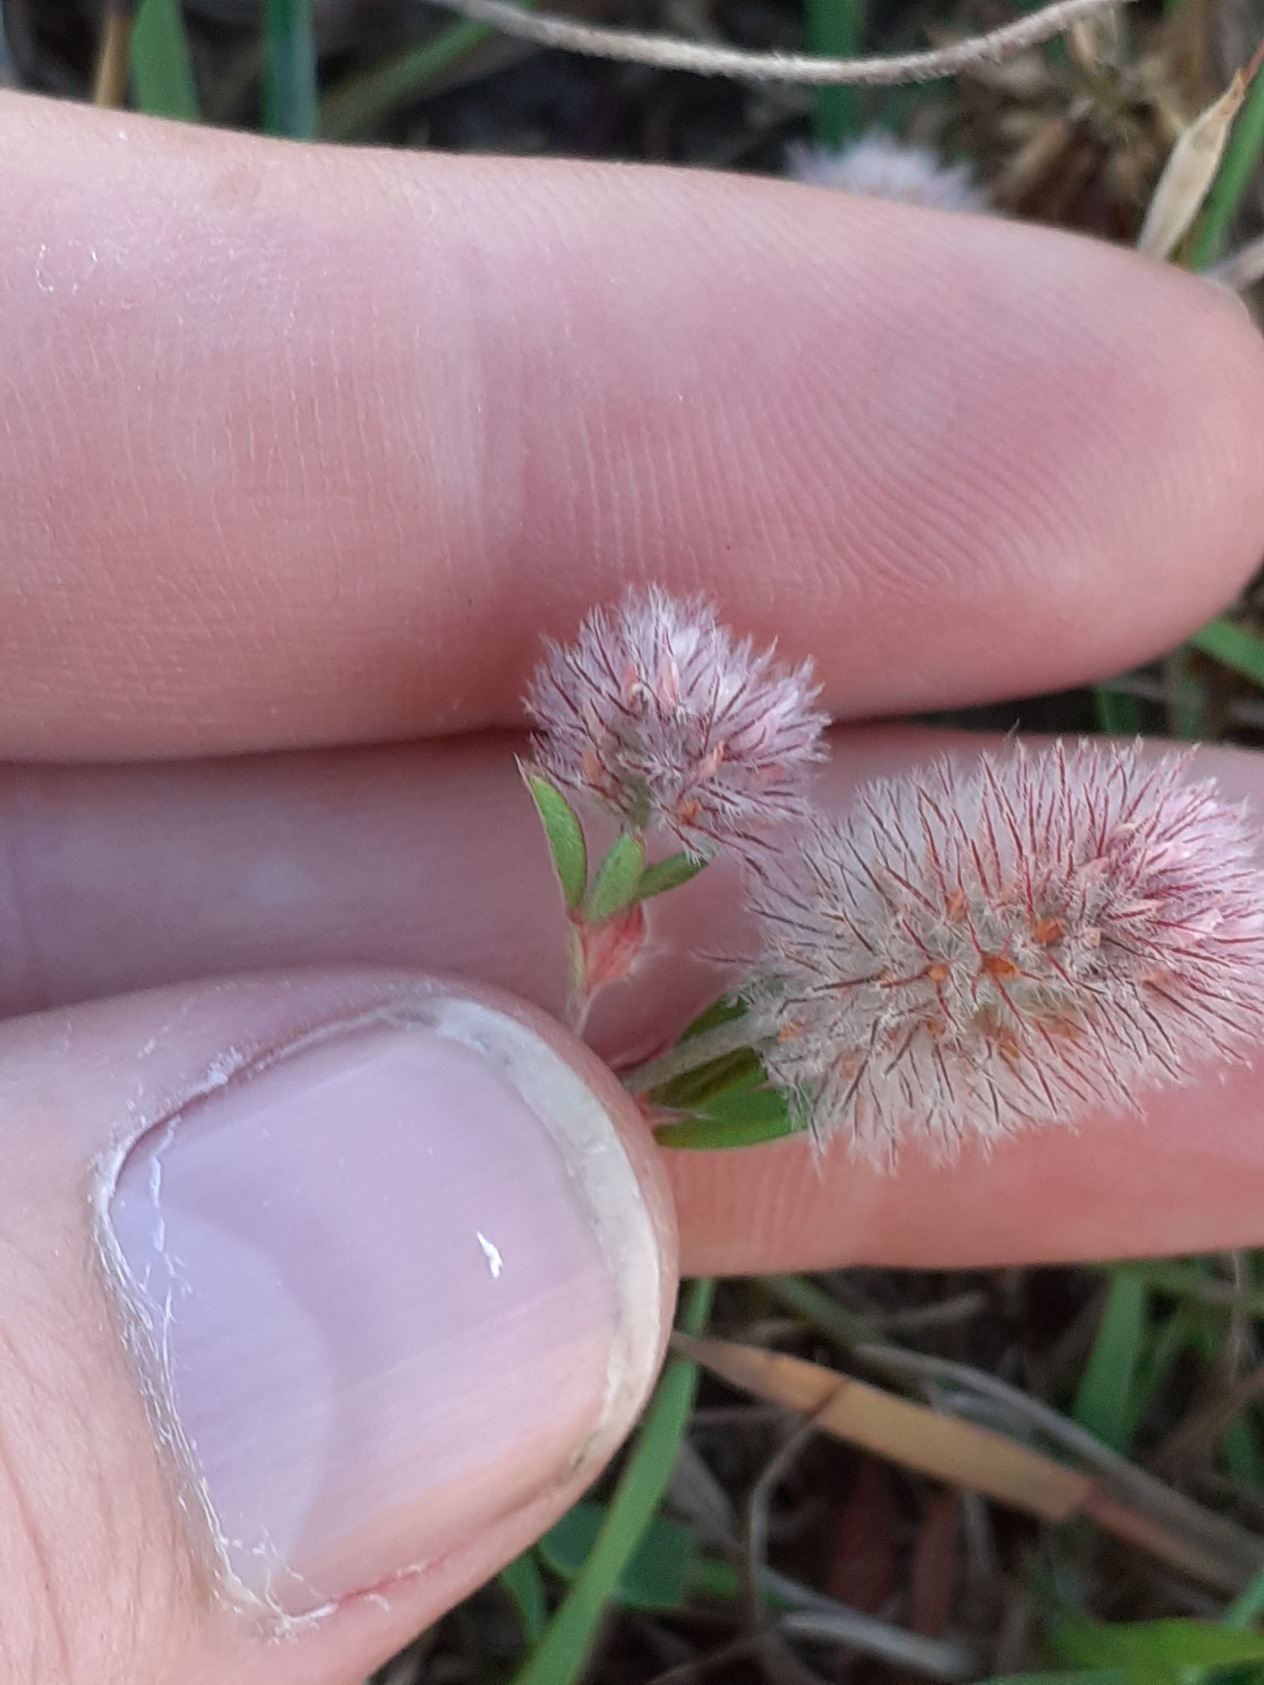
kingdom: Plantae
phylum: Tracheophyta
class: Magnoliopsida
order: Fabales
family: Fabaceae
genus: Trifolium
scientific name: Trifolium arvense
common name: Hare-kløver
